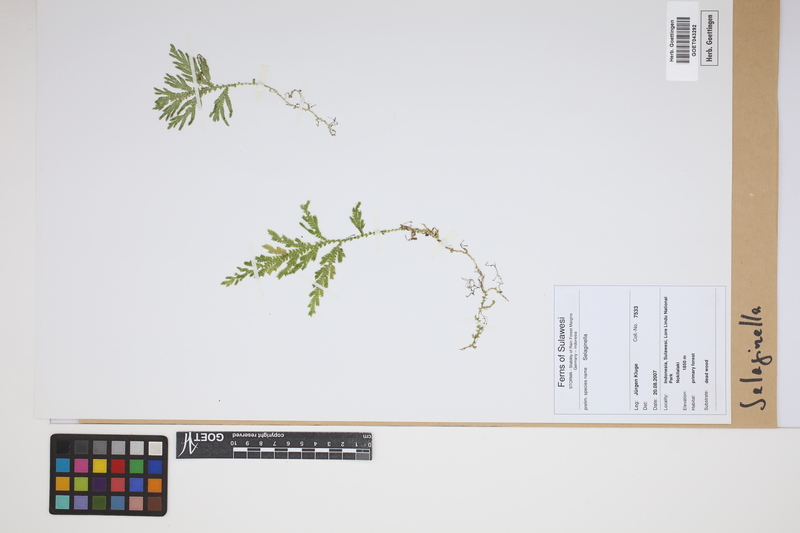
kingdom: Plantae
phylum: Tracheophyta
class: Lycopodiopsida
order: Selaginellales
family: Selaginellaceae
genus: Selaginella
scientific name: Selaginella
